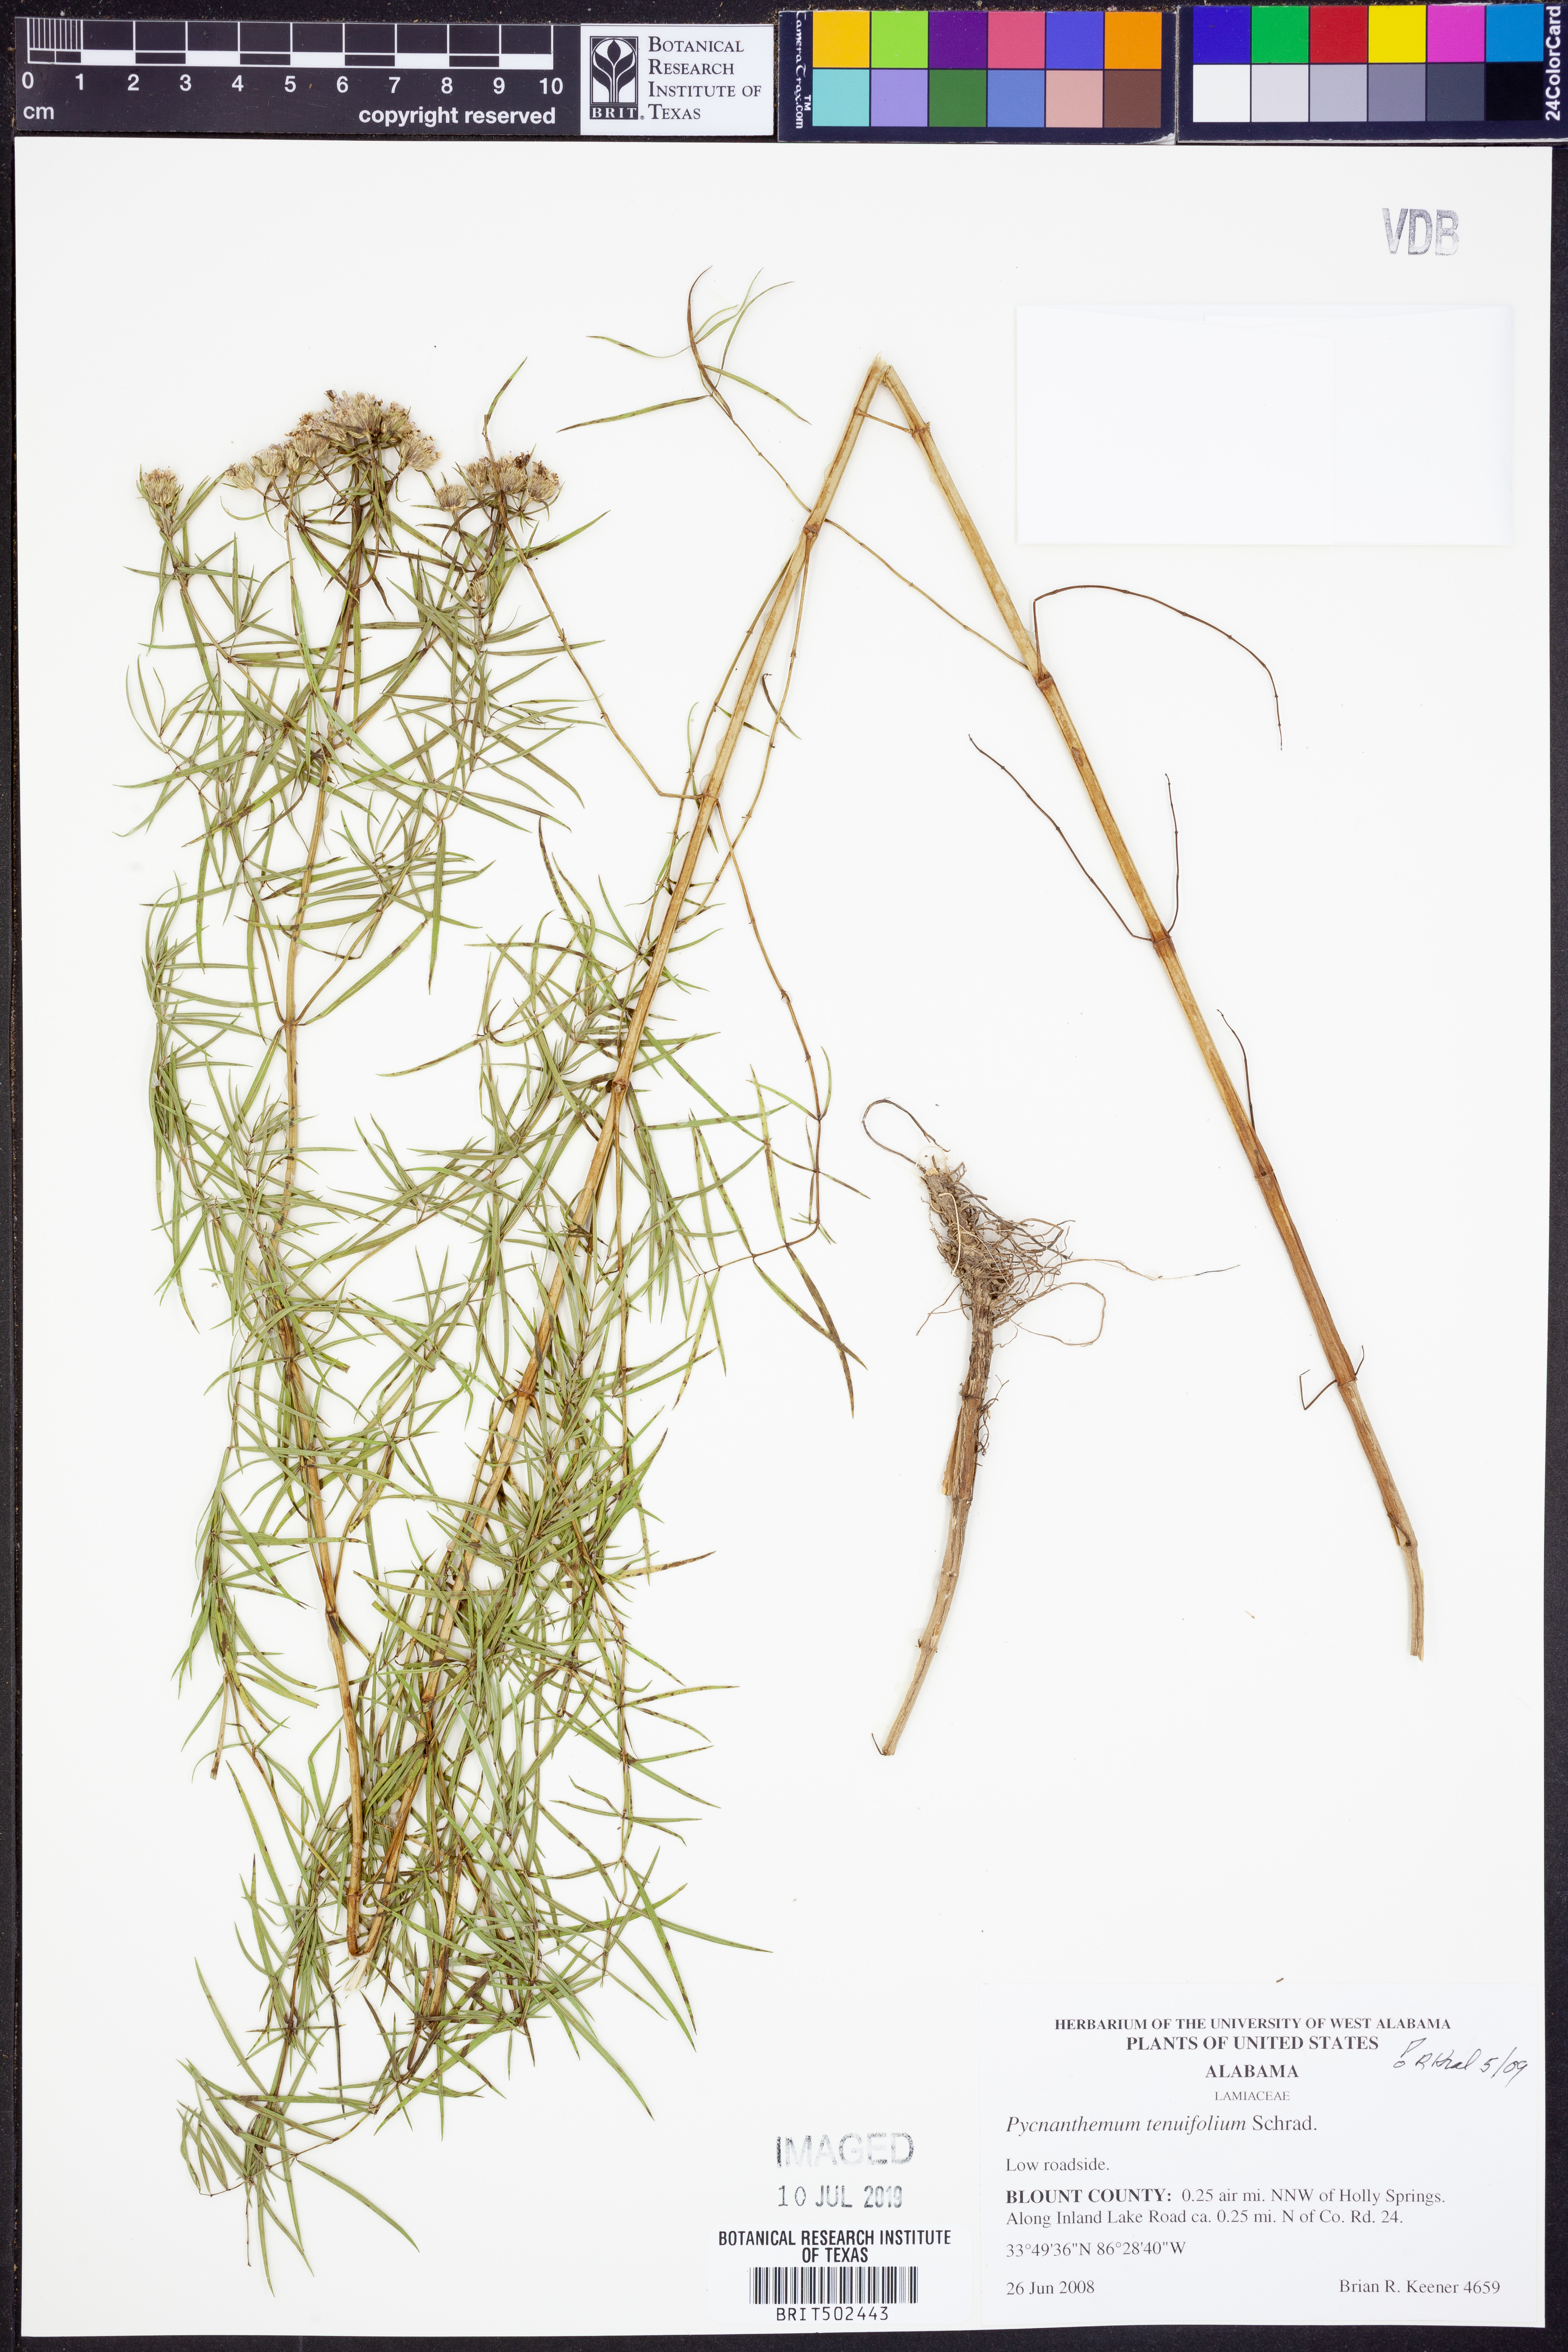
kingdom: Plantae
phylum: Tracheophyta
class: Magnoliopsida
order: Lamiales
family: Lamiaceae
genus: Pycnanthemum
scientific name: Pycnanthemum tenuifolium
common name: Narrow-leaf mountain-mint
